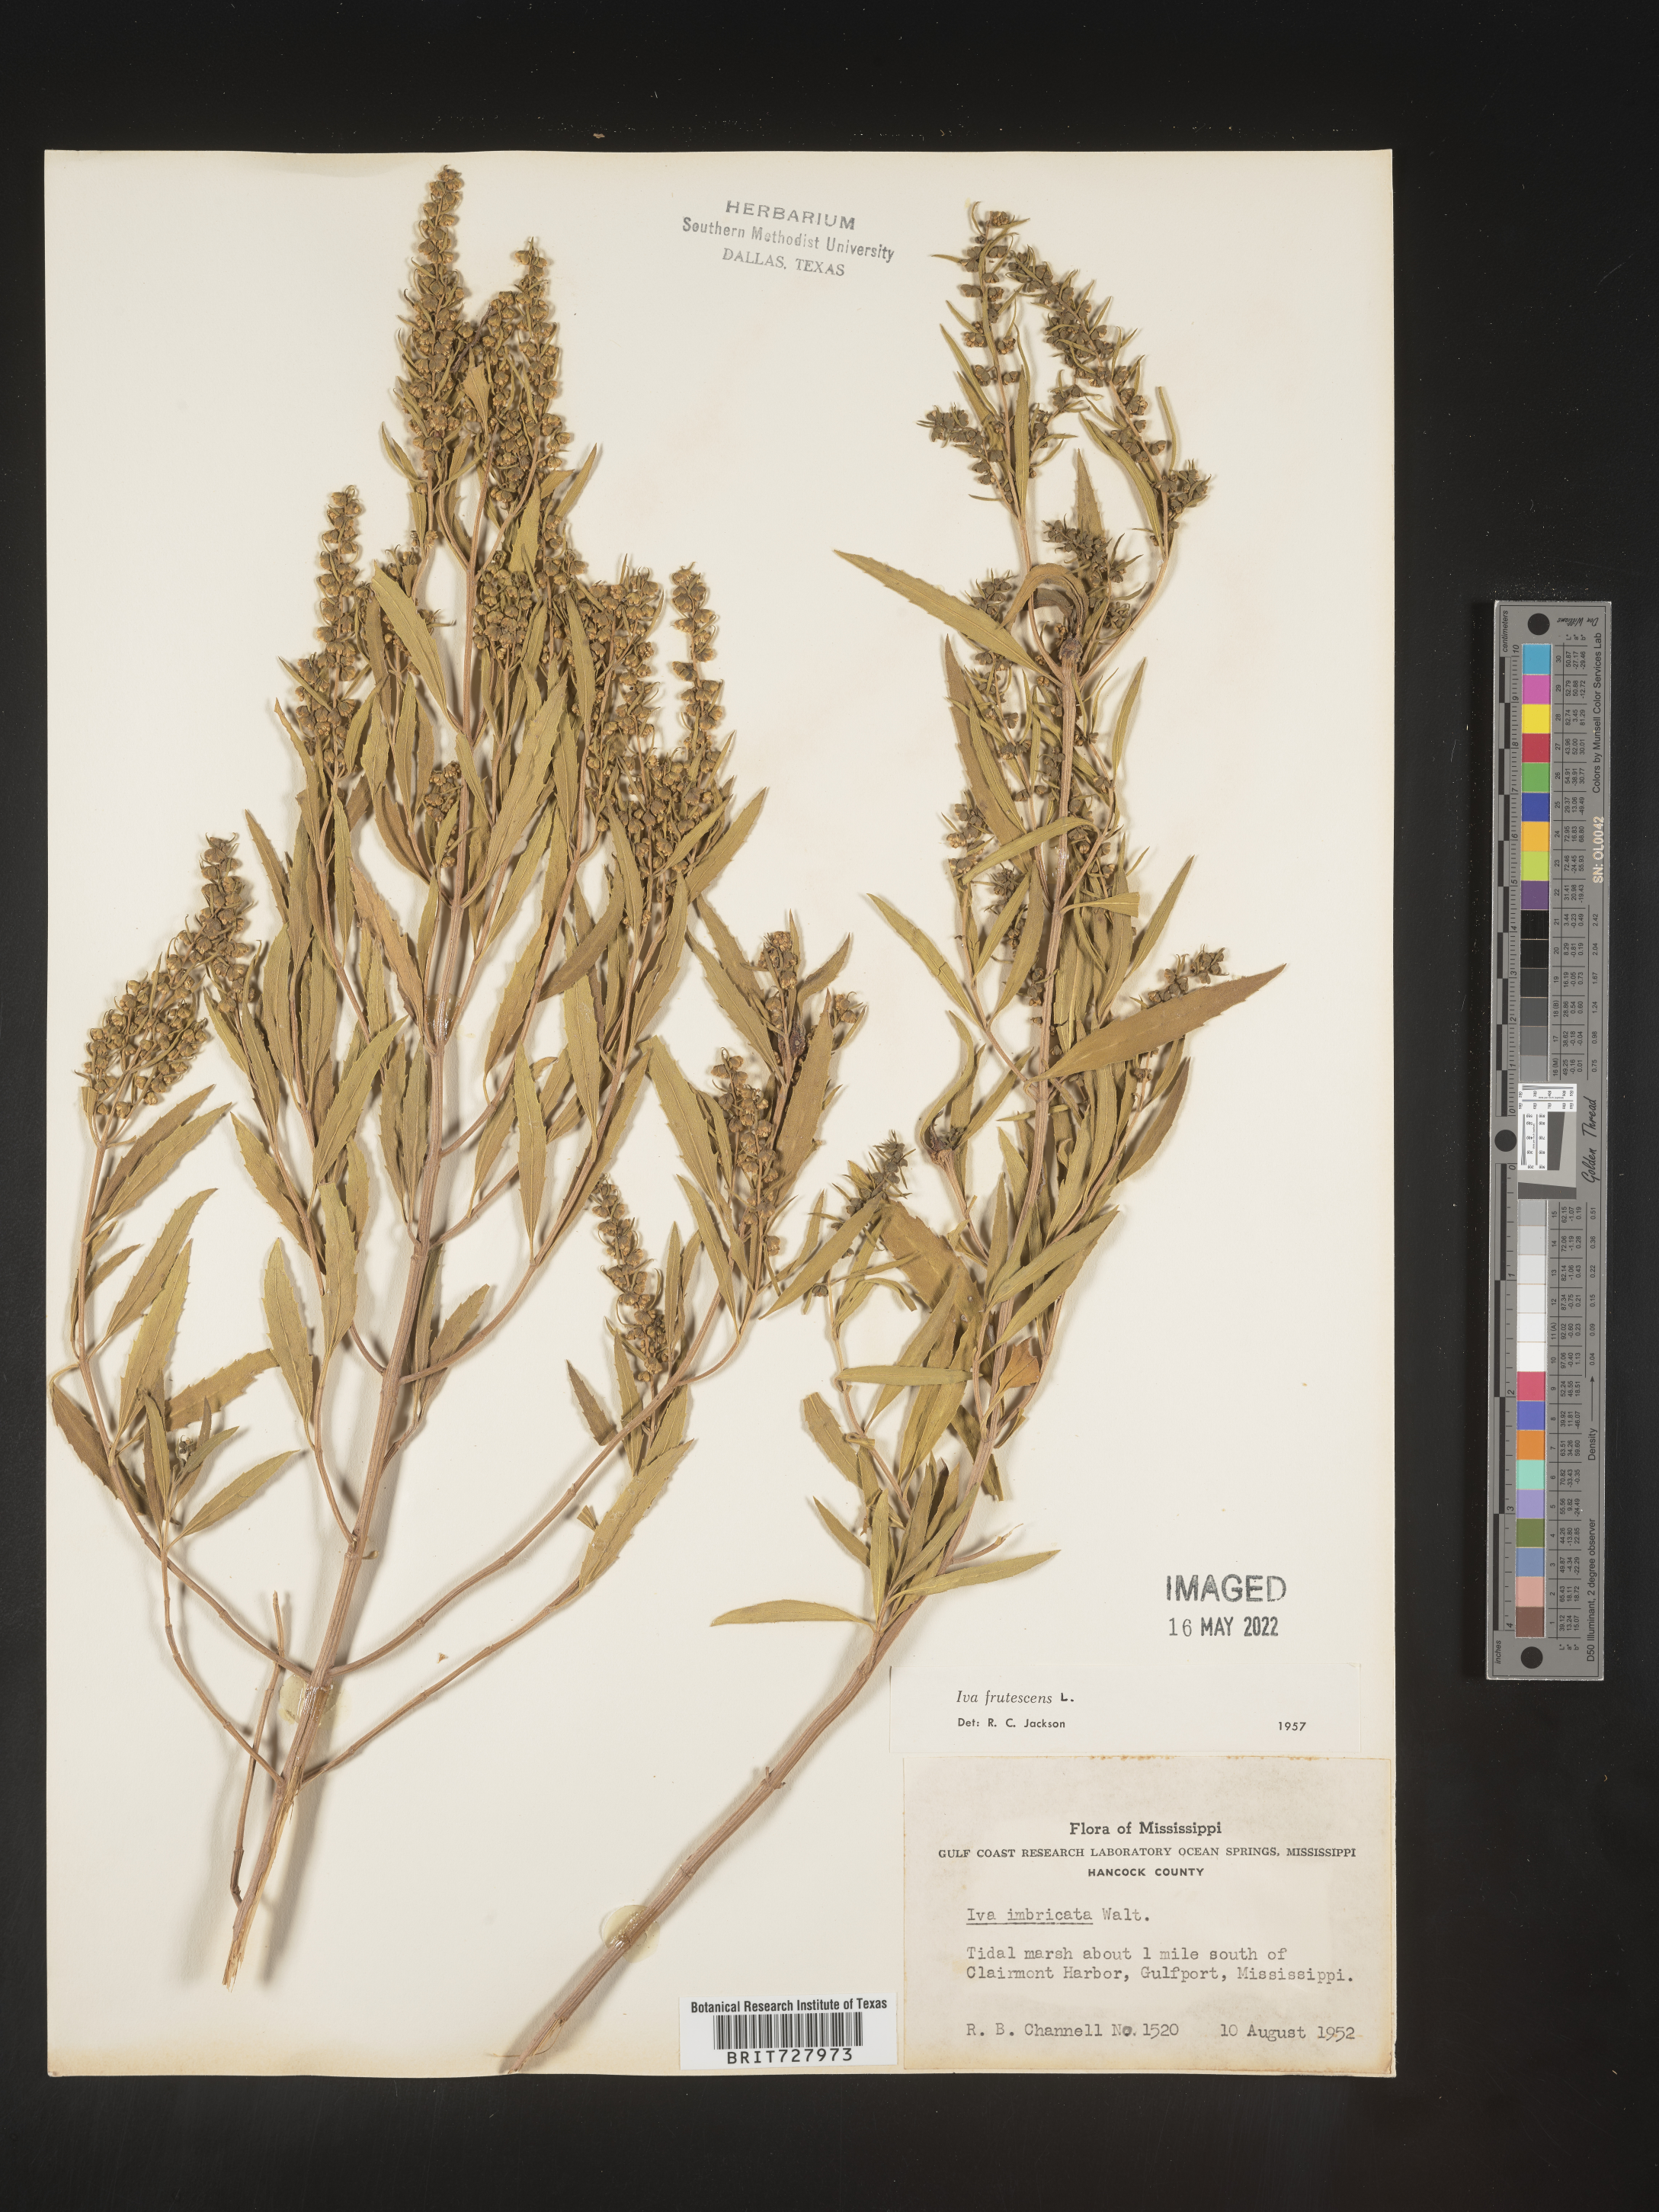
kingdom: Plantae
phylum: Tracheophyta
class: Magnoliopsida
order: Asterales
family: Asteraceae
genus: Iva
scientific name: Iva frutescens
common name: Big-leaved marsh-elder
